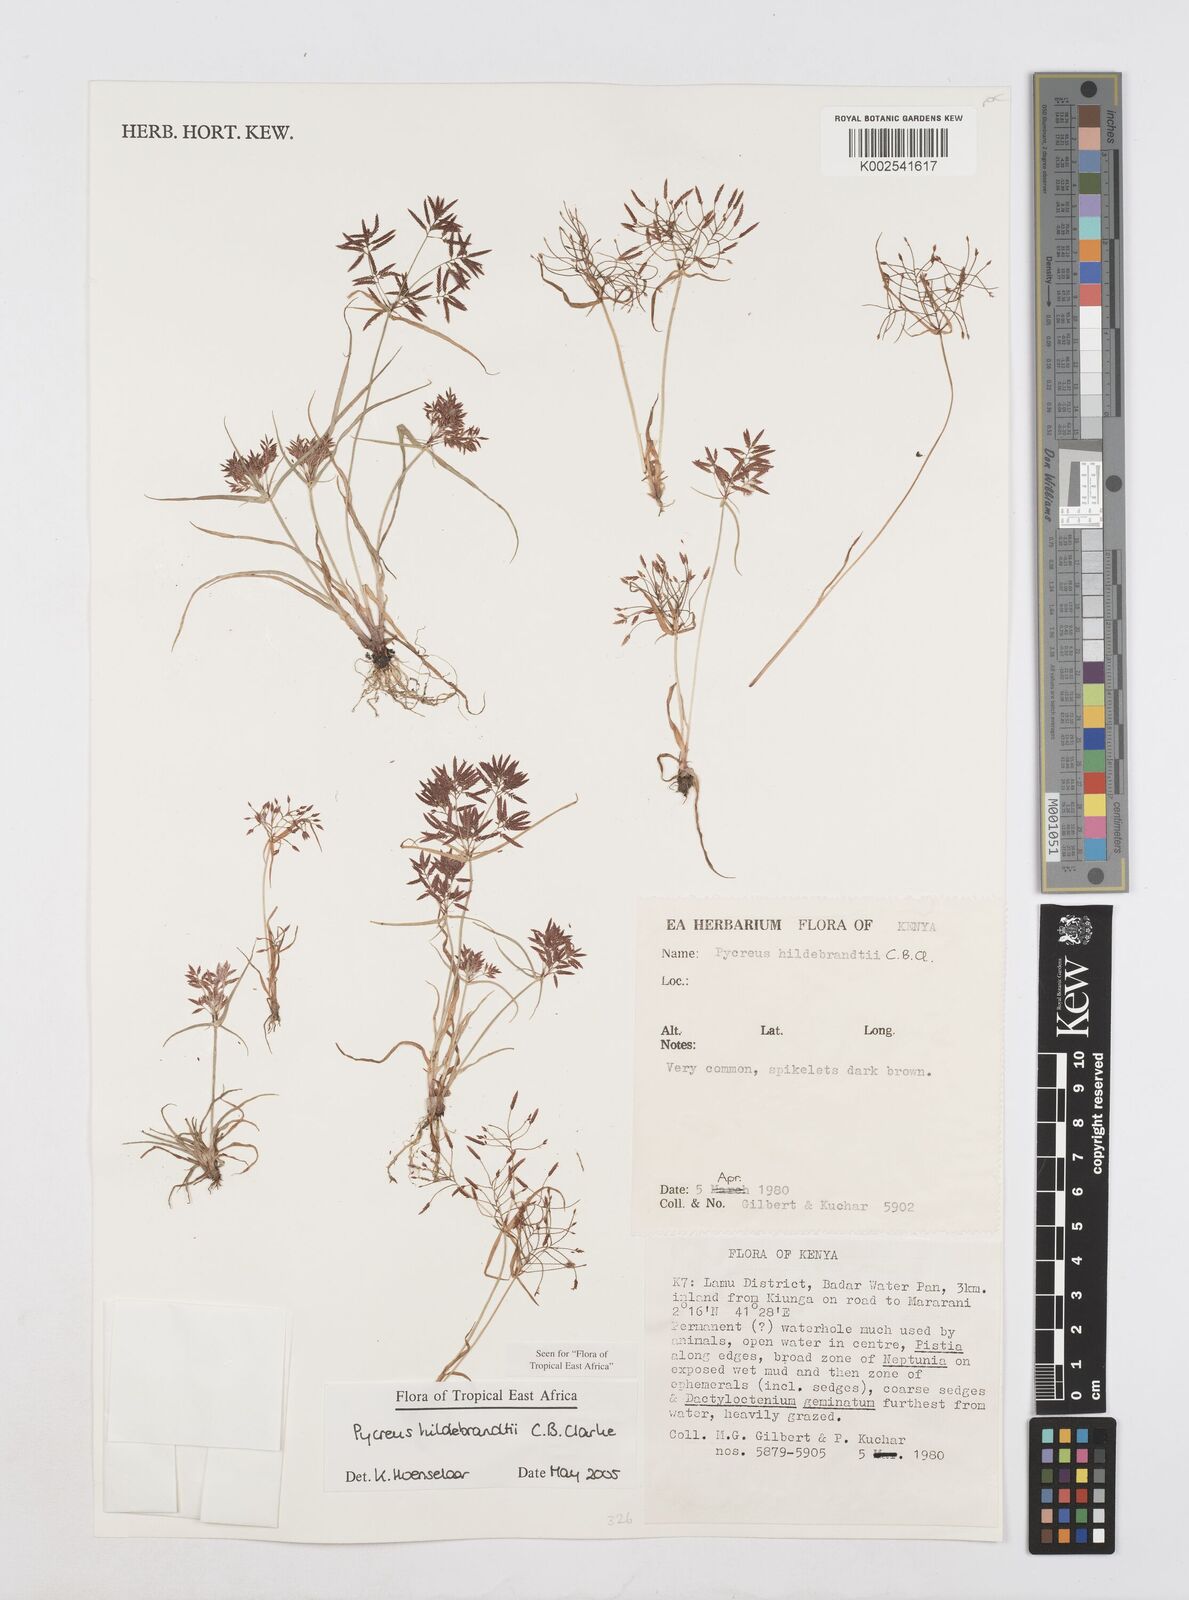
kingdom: Plantae
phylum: Tracheophyta
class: Liliopsida
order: Poales
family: Cyperaceae
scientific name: Cyperaceae
